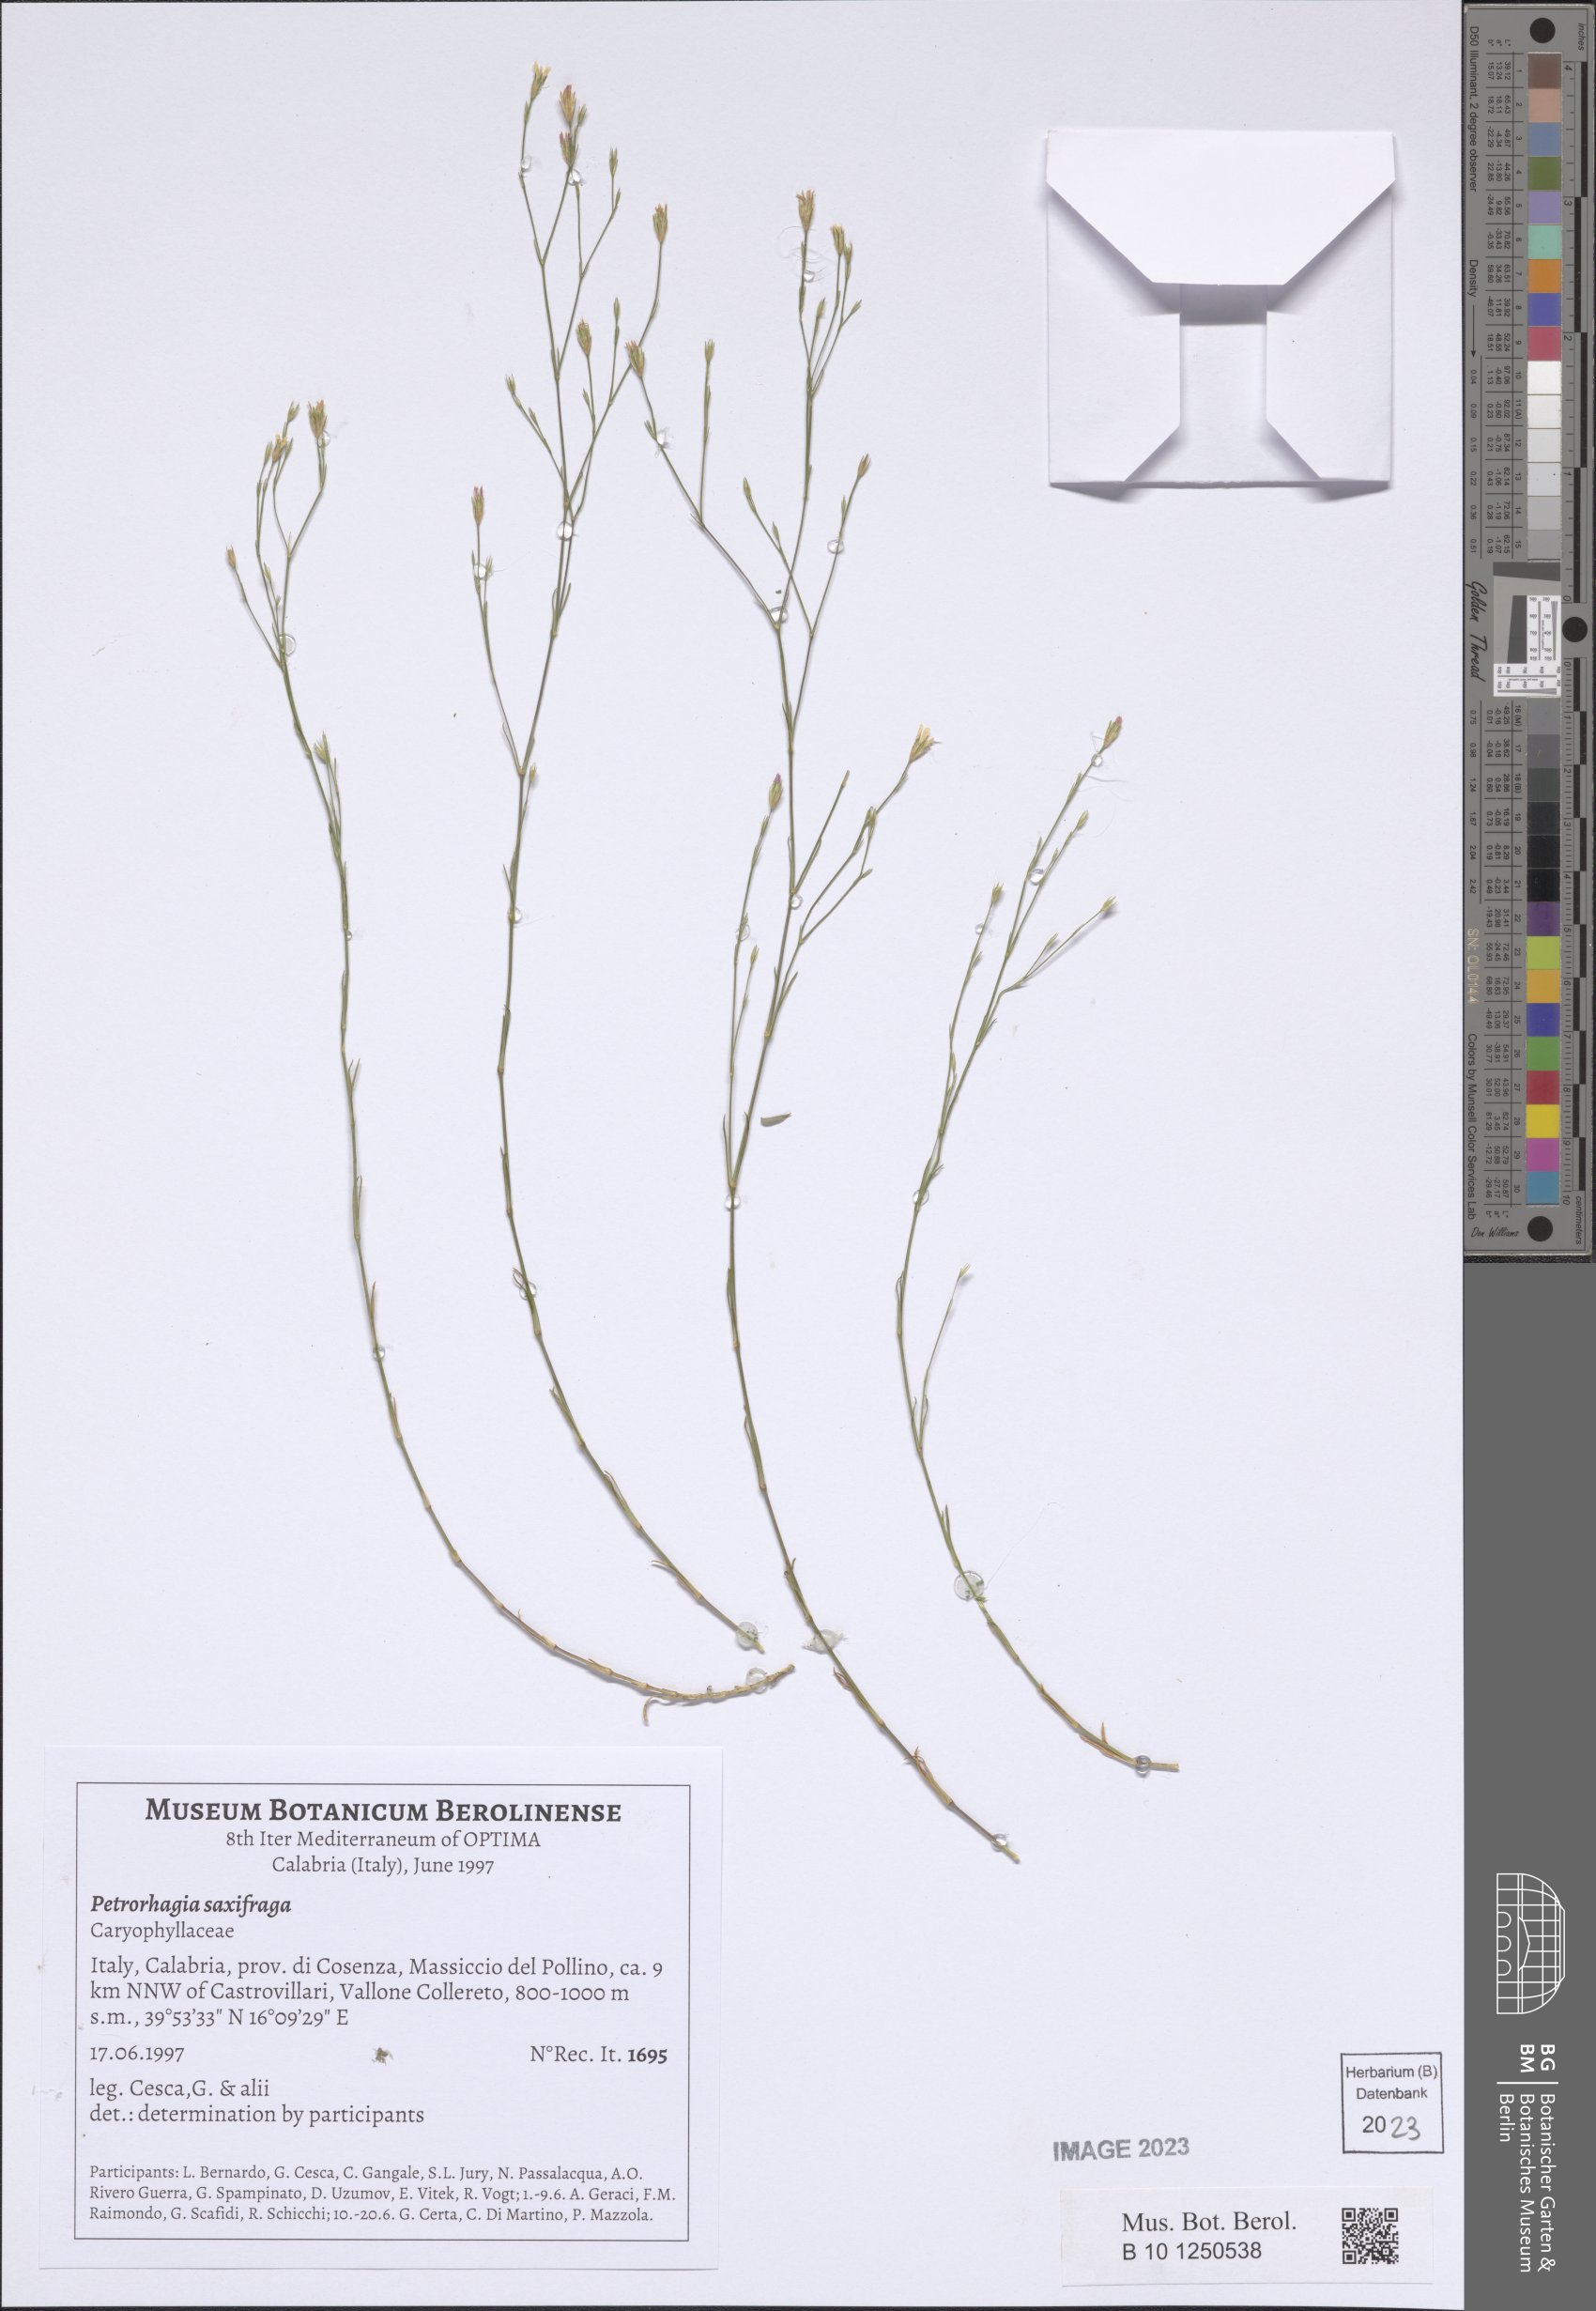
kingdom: Plantae
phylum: Tracheophyta
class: Magnoliopsida
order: Caryophyllales
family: Caryophyllaceae
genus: Petrorhagia
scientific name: Petrorhagia saxifraga
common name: Tunicflower
